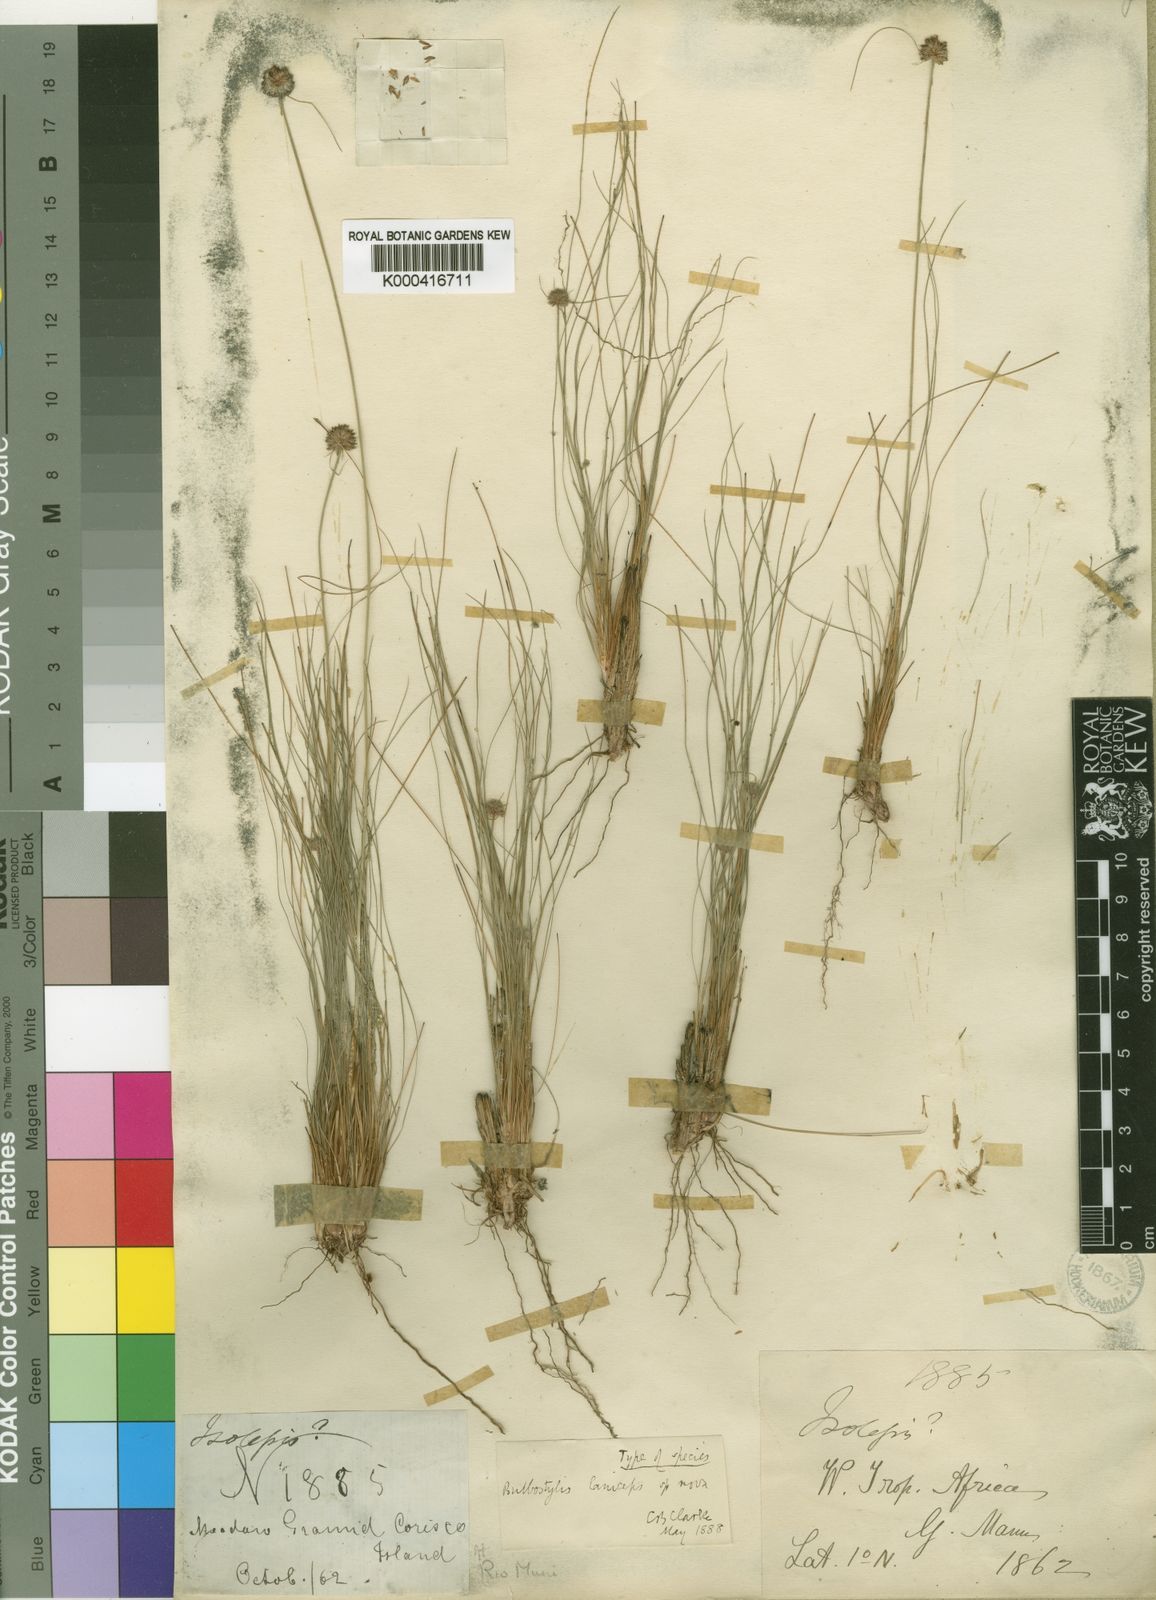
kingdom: Plantae
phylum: Tracheophyta
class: Liliopsida
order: Poales
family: Cyperaceae
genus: Bulbostylis
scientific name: Bulbostylis
